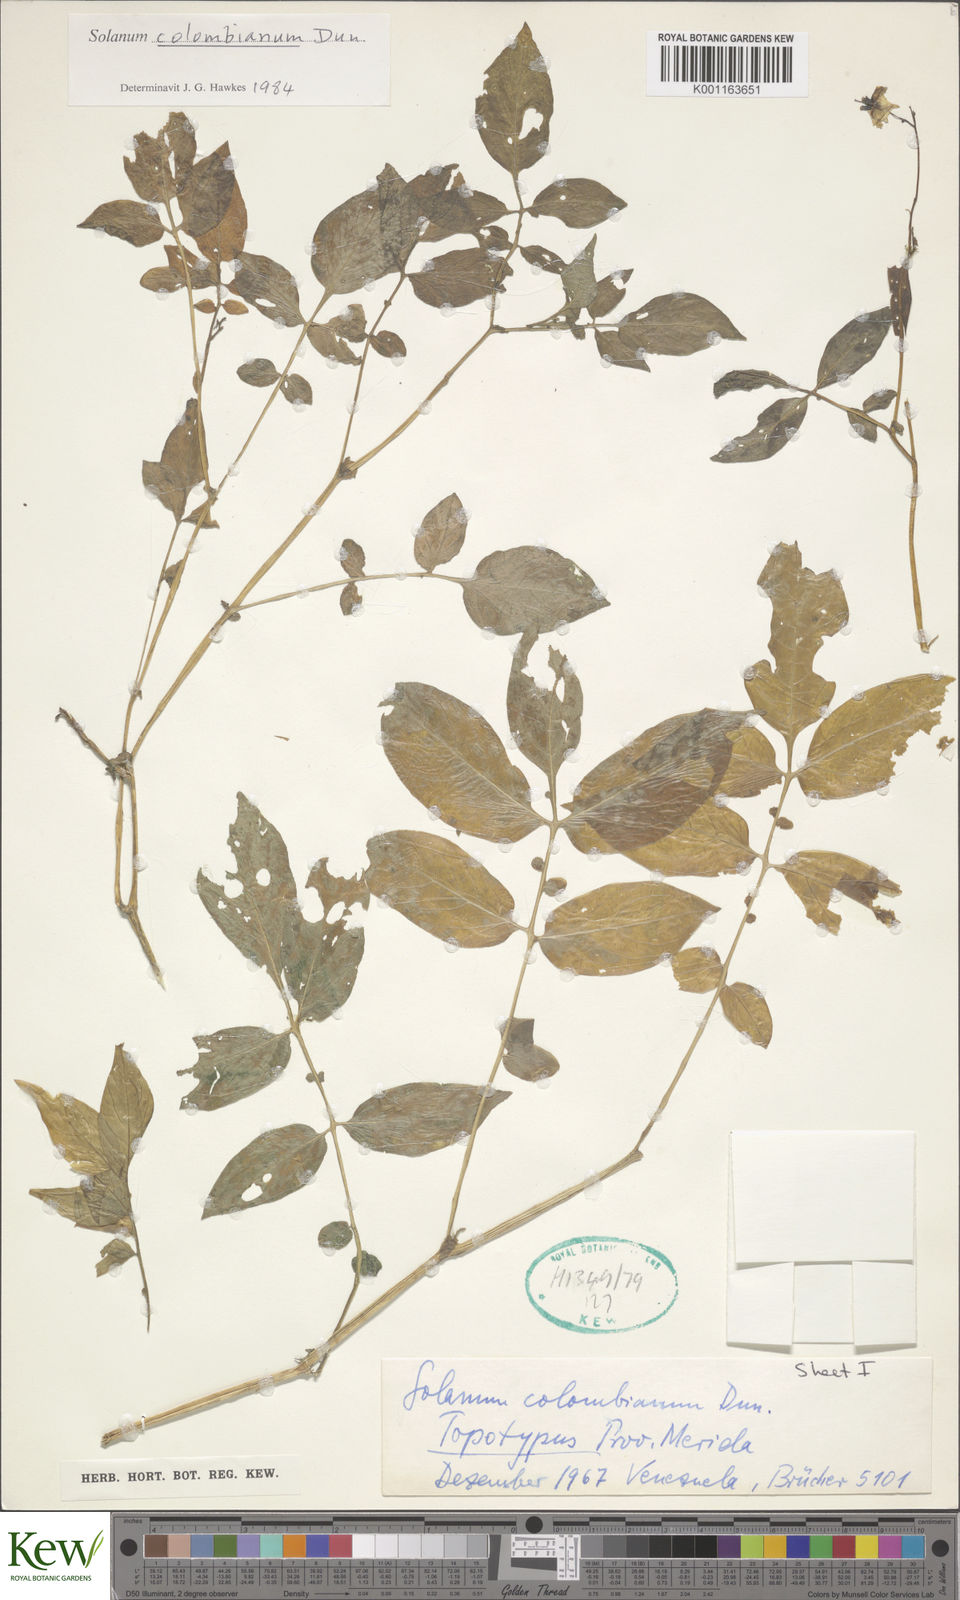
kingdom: Plantae
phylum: Tracheophyta
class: Magnoliopsida
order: Solanales
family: Solanaceae
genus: Solanum
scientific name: Solanum colombianum
